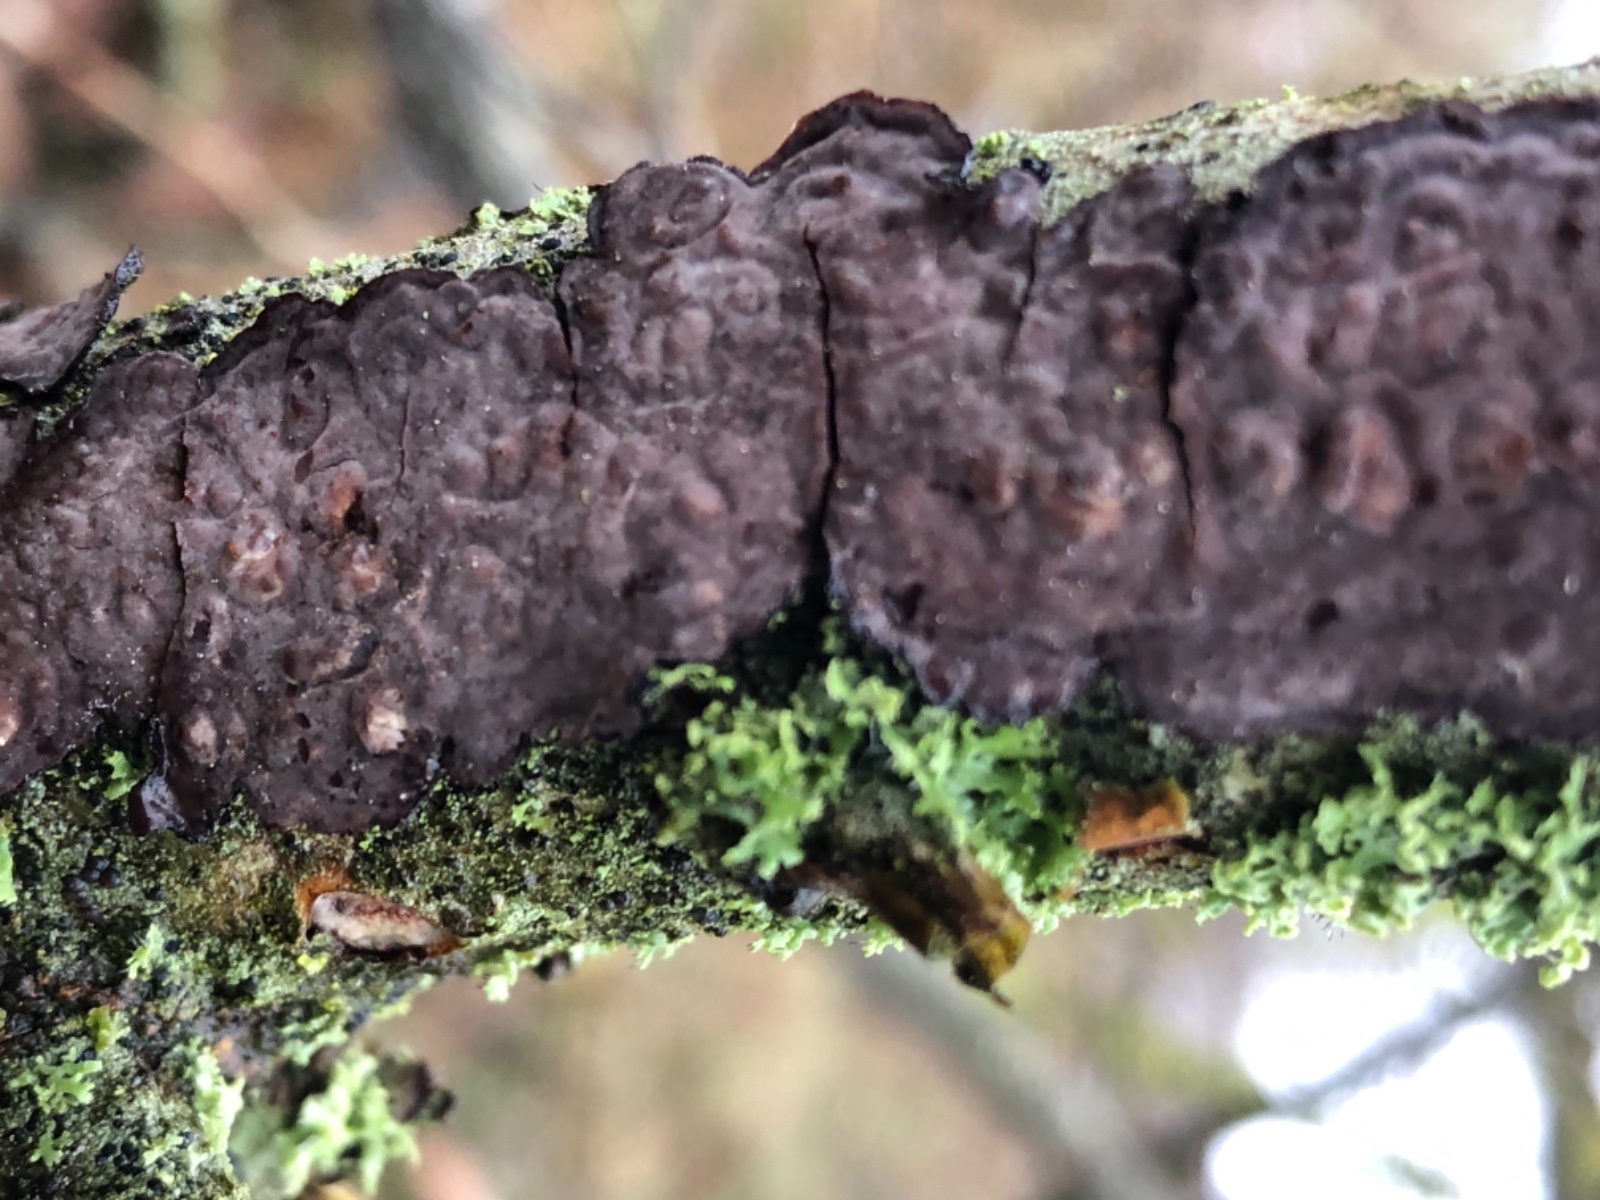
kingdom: Fungi
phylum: Basidiomycota
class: Agaricomycetes
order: Russulales
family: Peniophoraceae
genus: Peniophora
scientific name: Peniophora quercina
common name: ege-voksskind
